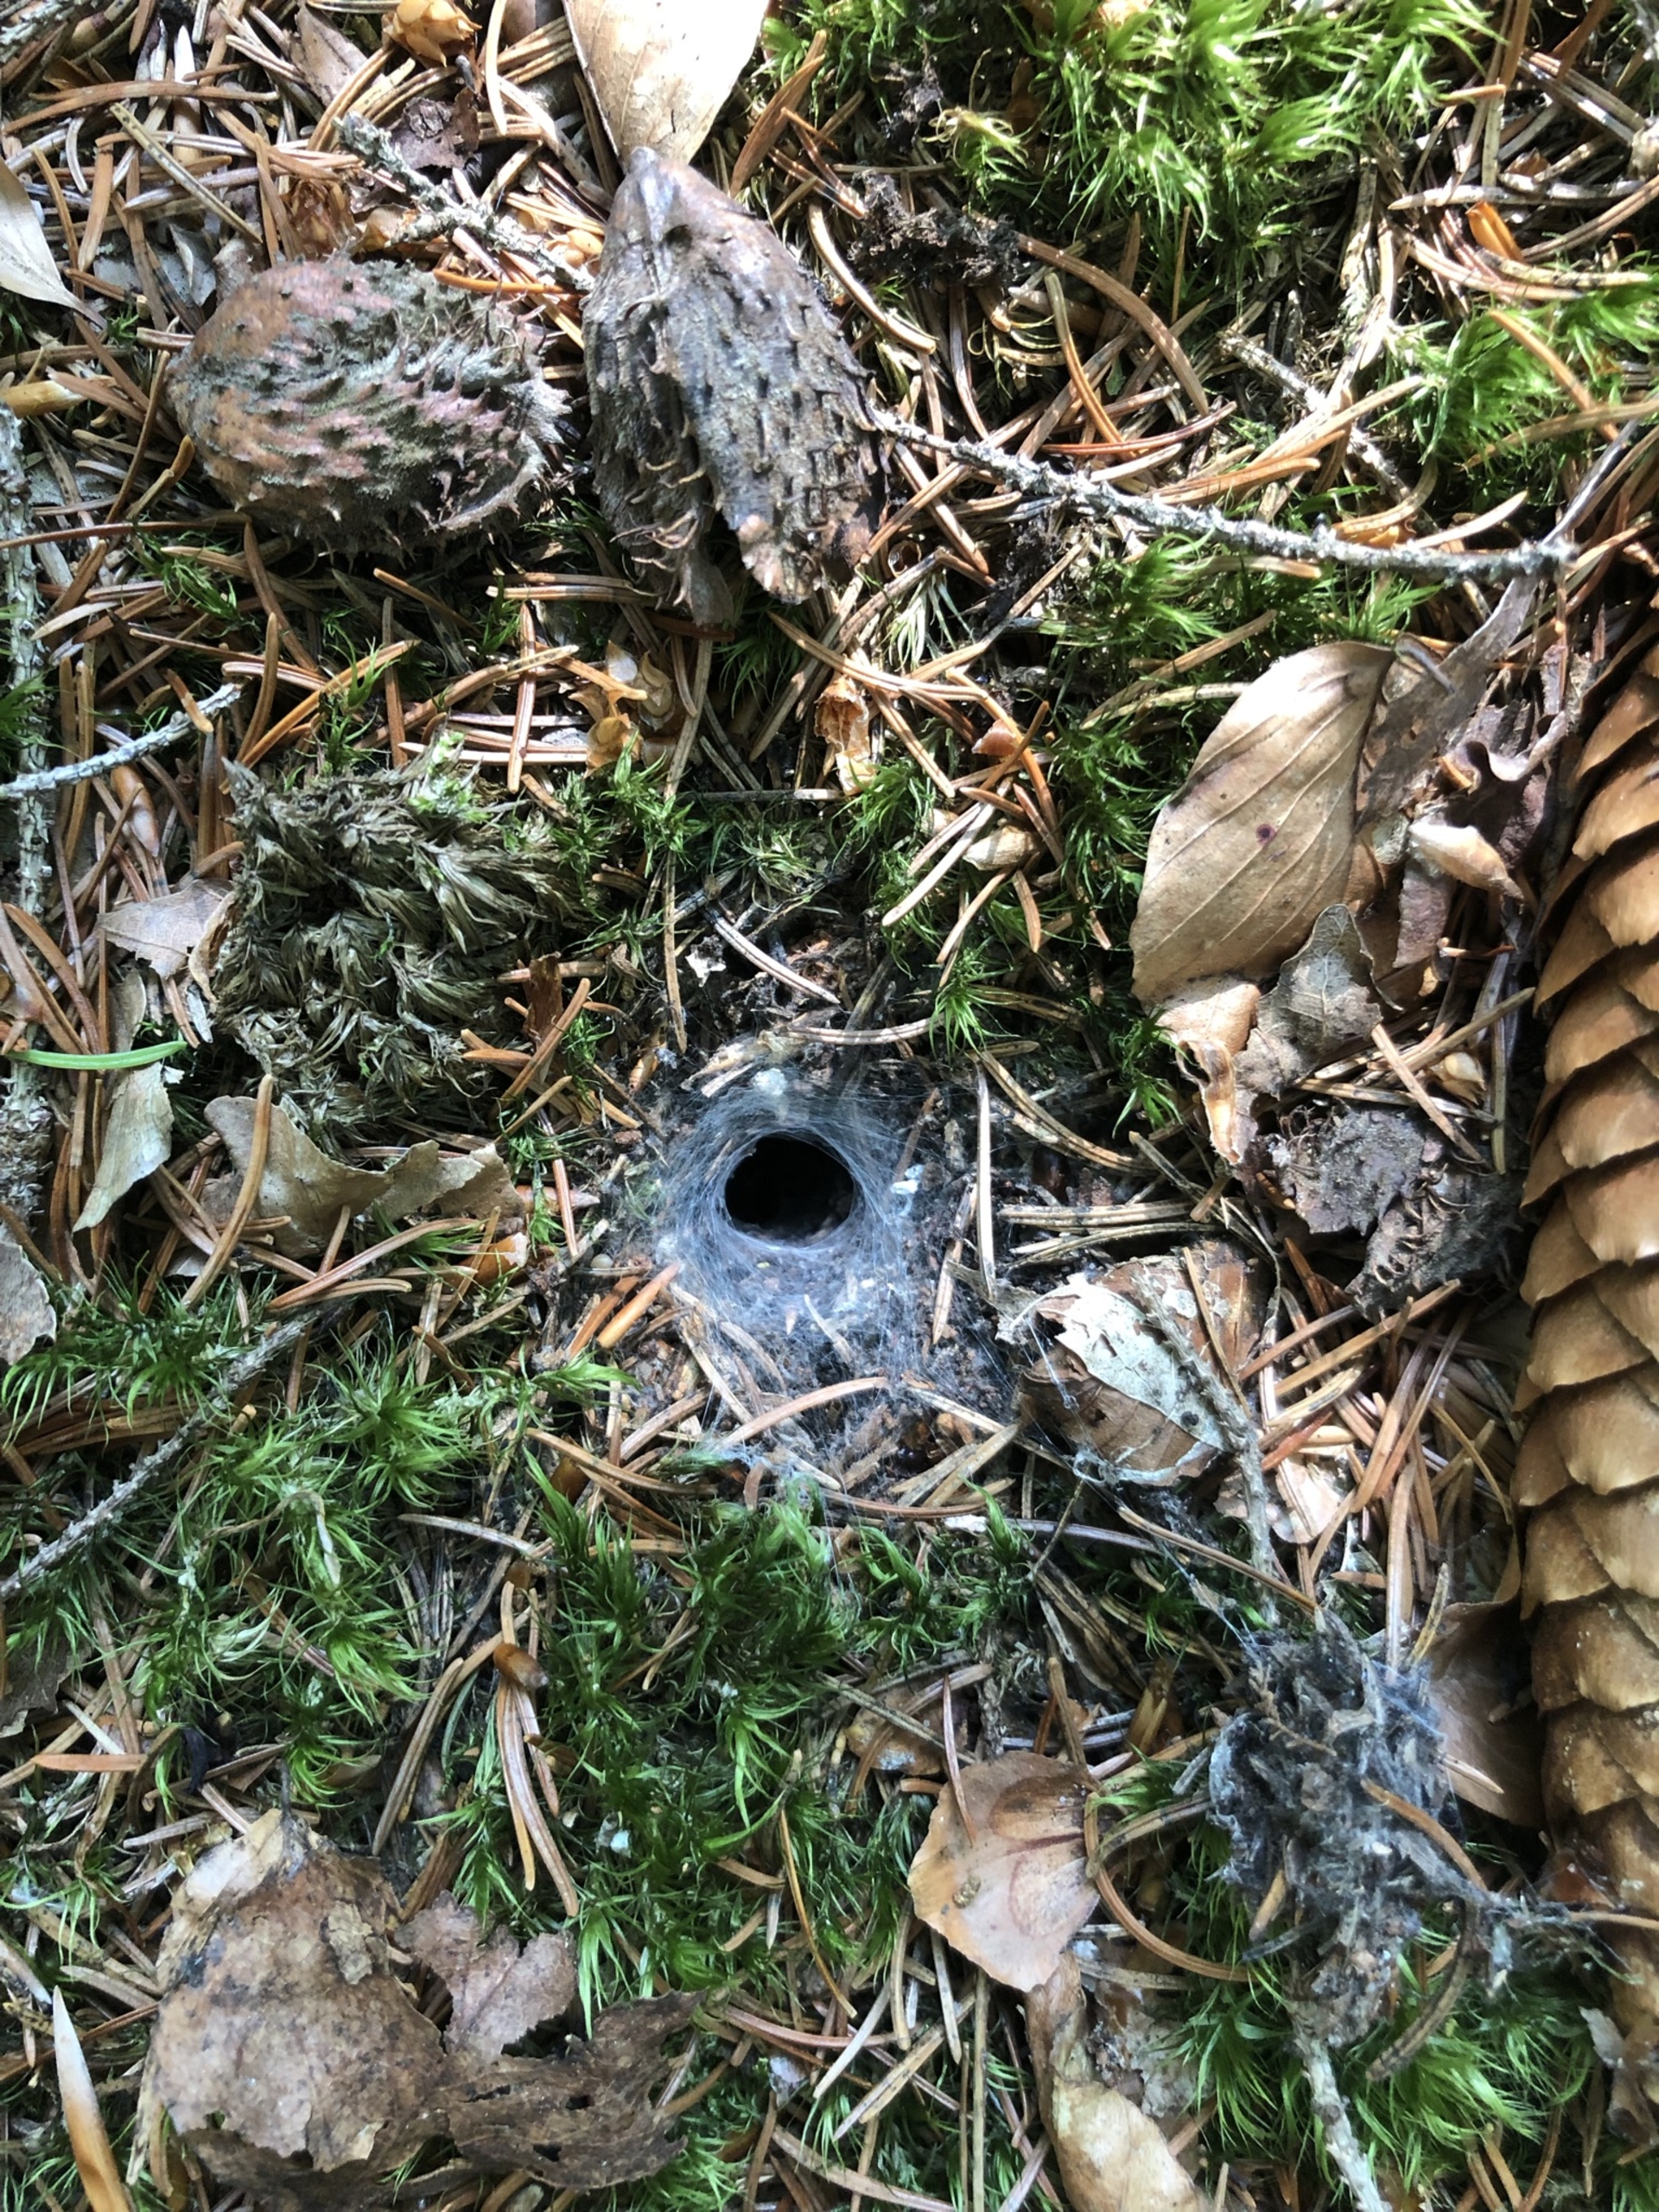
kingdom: Animalia
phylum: Arthropoda
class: Arachnida
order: Araneae
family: Agelenidae
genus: Coelotes
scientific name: Coelotes
